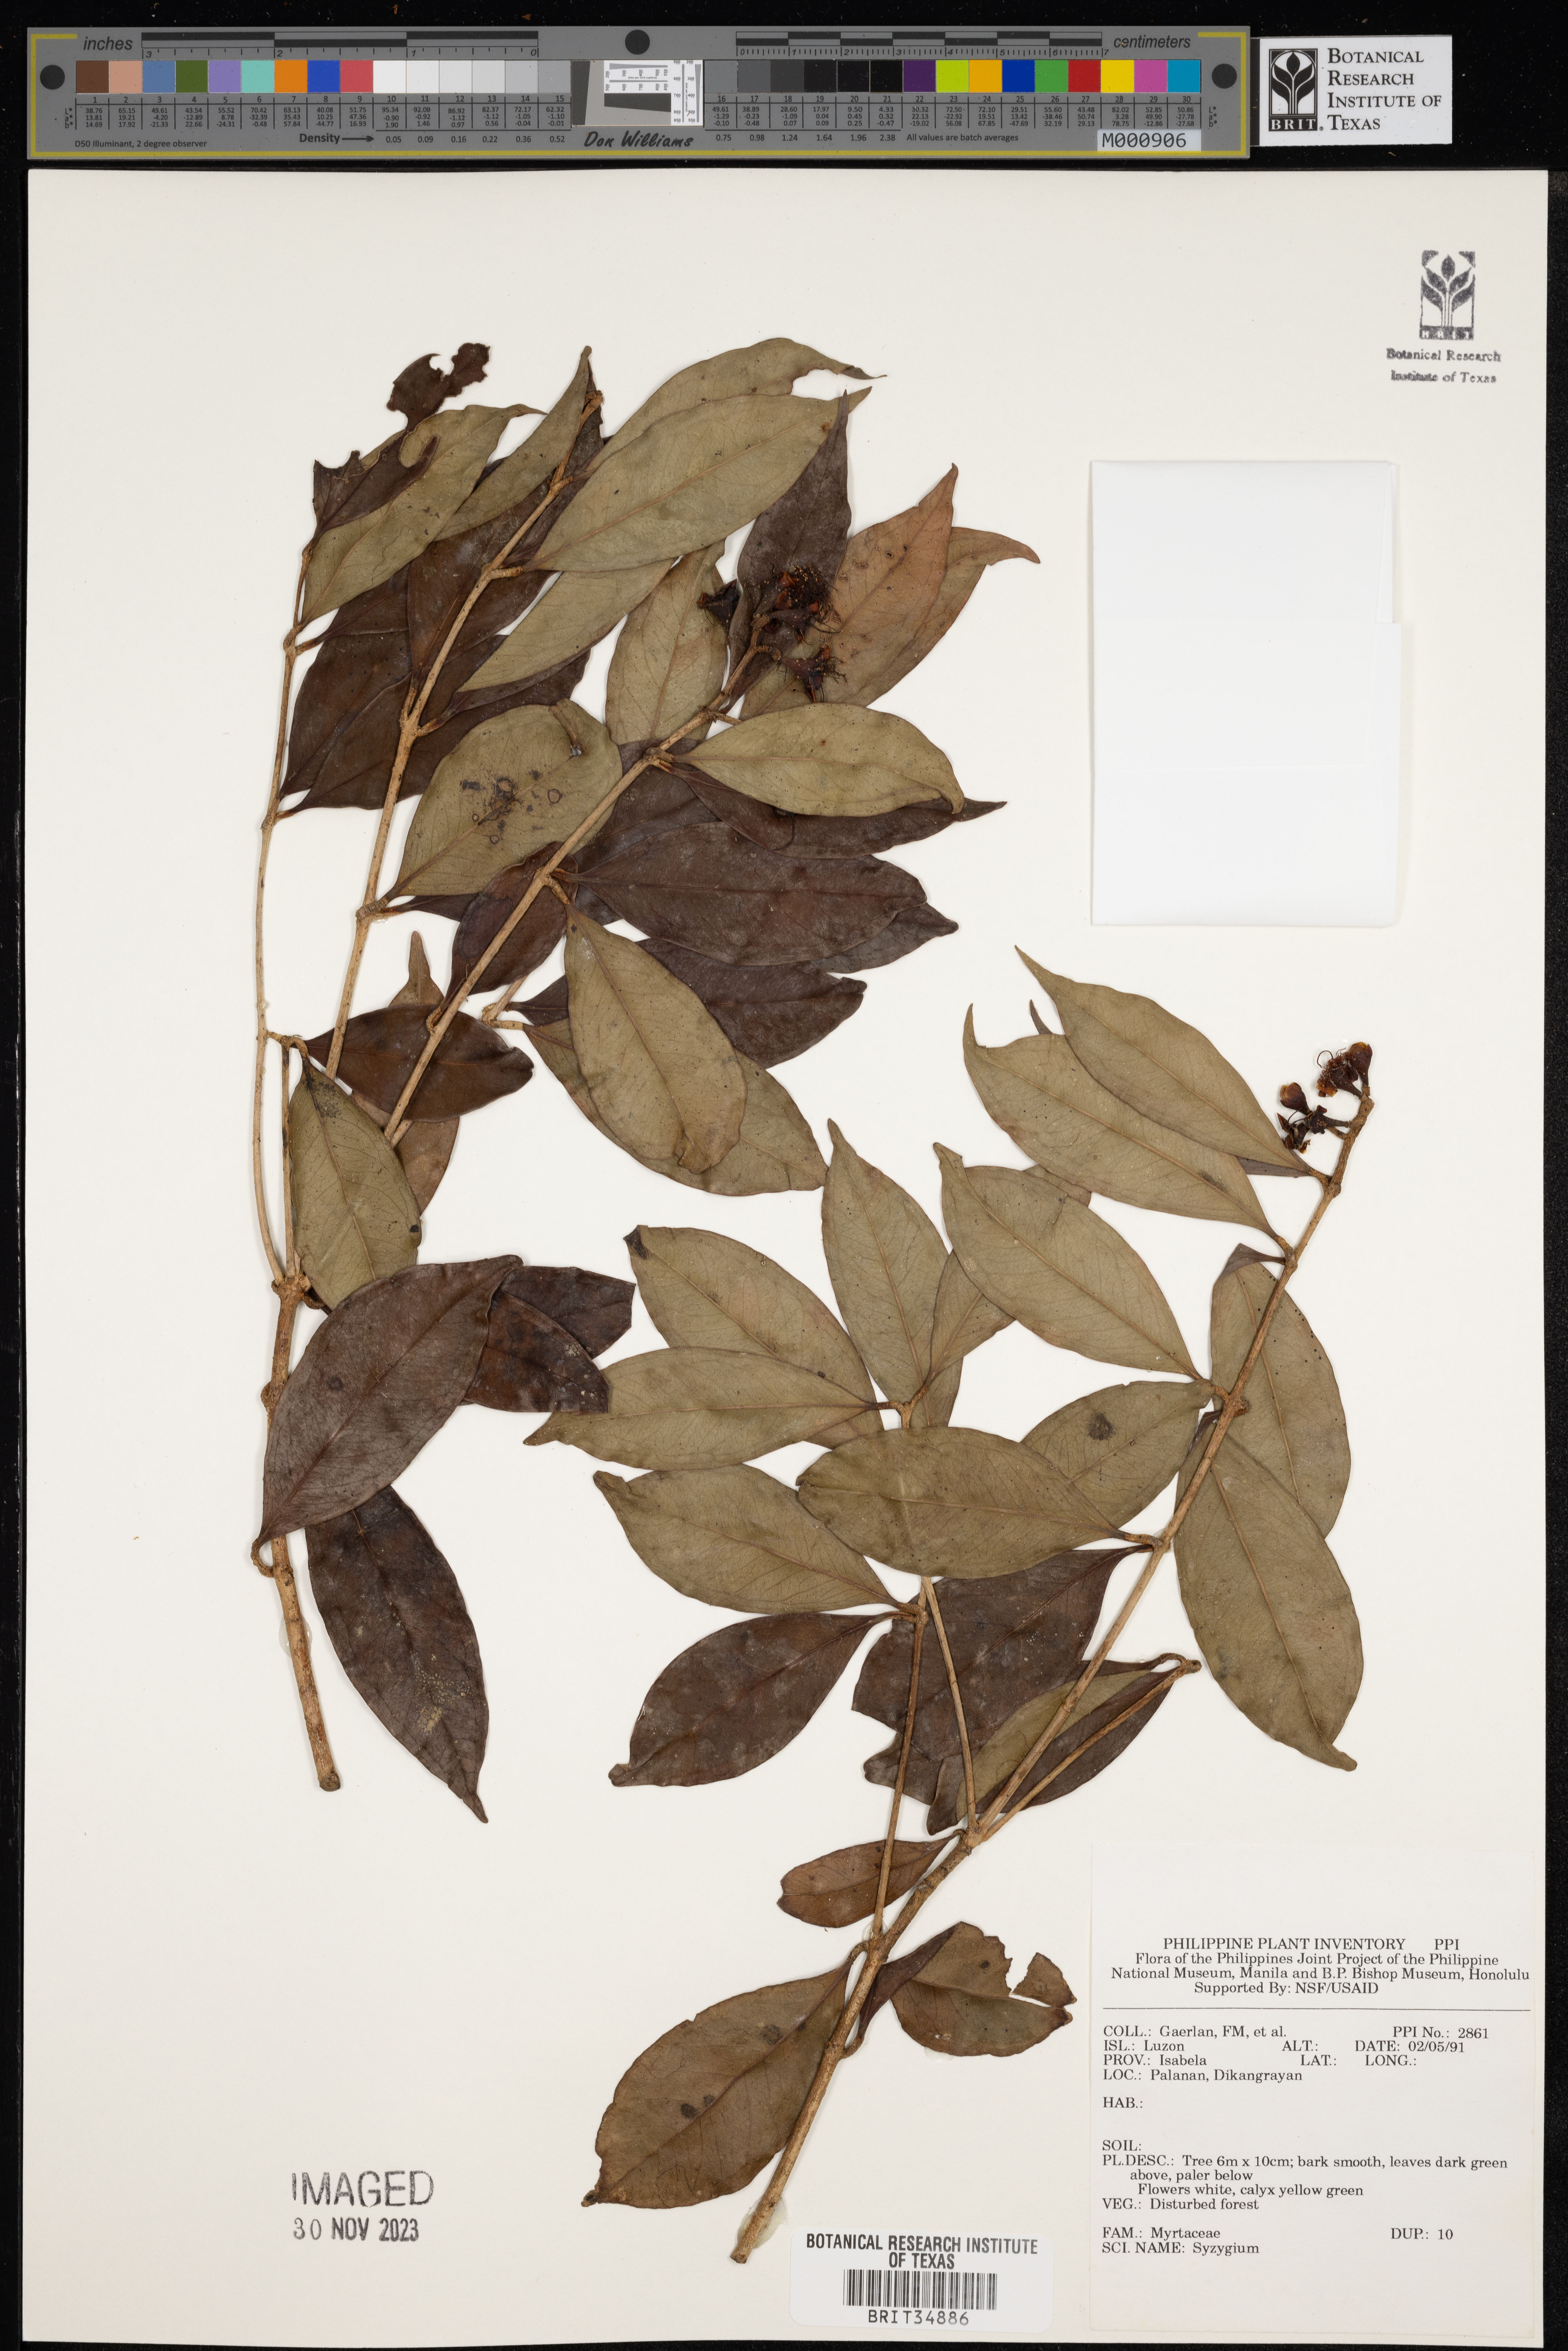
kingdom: Plantae
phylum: Tracheophyta
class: Magnoliopsida
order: Myrtales
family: Myrtaceae
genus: Syzygium
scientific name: Syzygium
